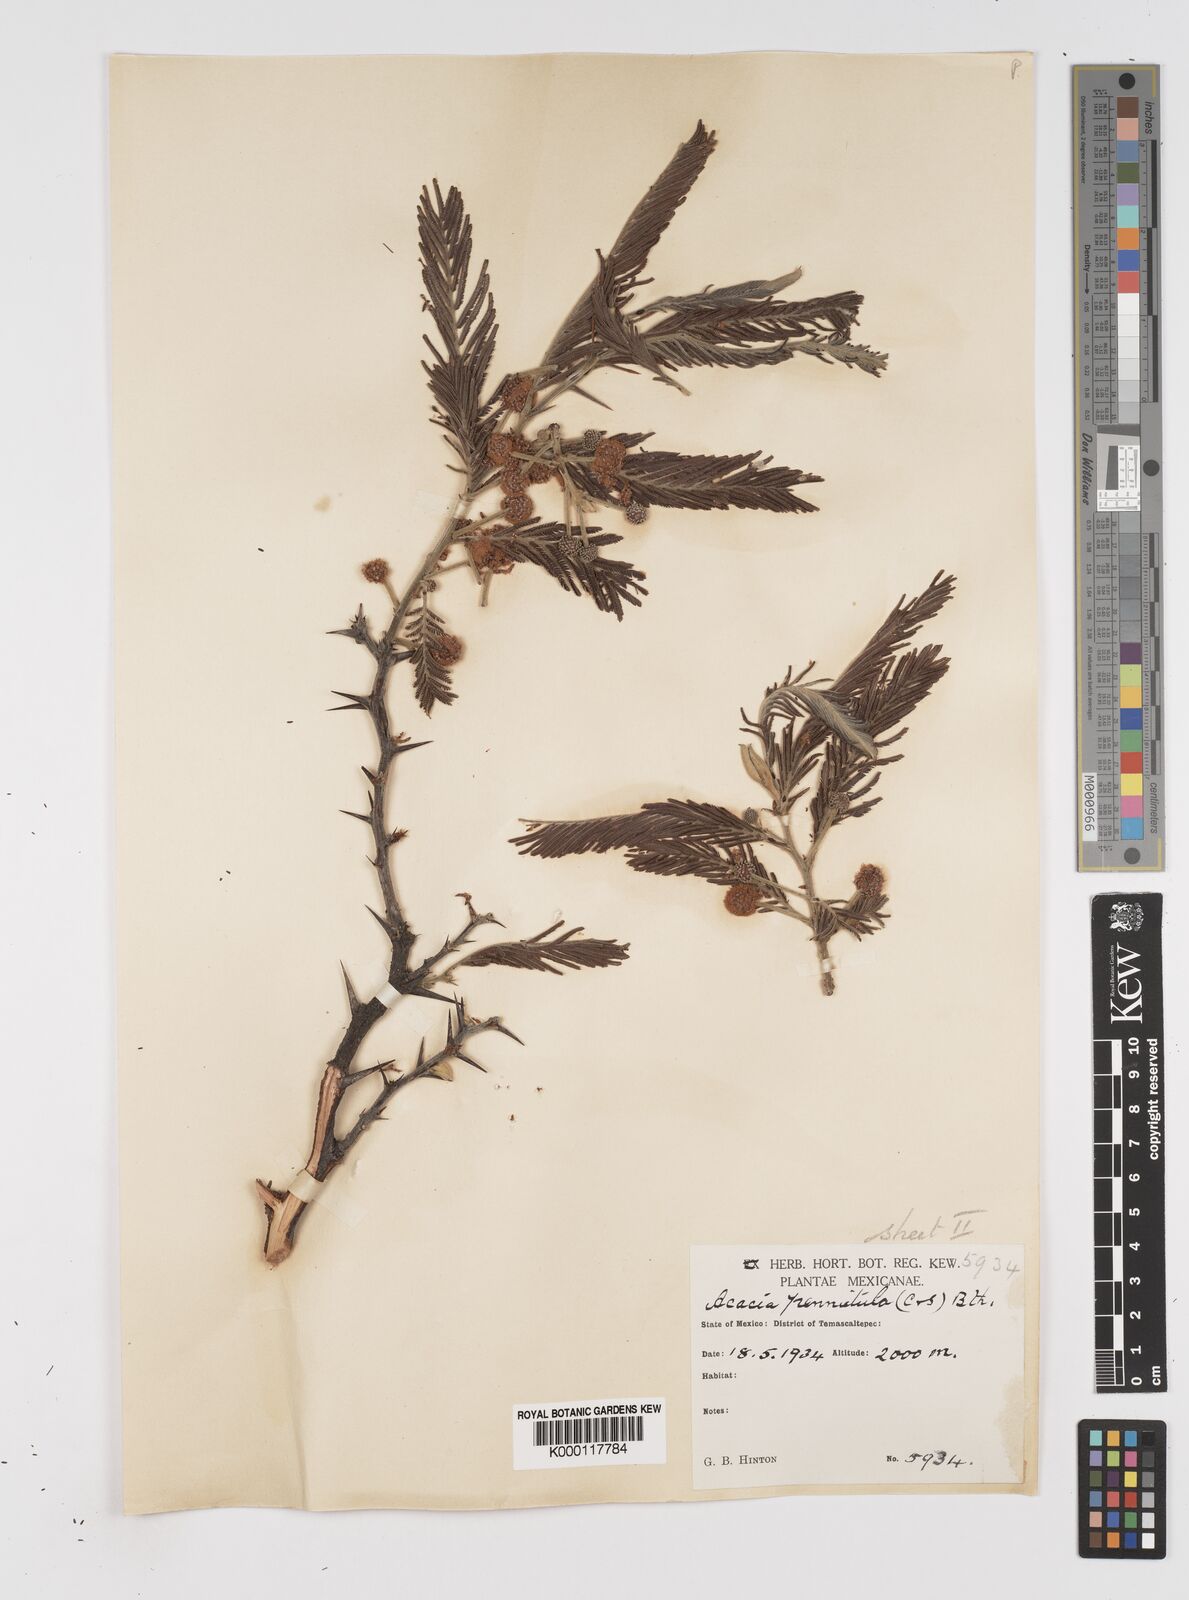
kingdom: Plantae
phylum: Tracheophyta
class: Magnoliopsida
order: Fabales
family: Fabaceae
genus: Vachellia
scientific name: Vachellia pennatula
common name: Fern-leaf acacia
